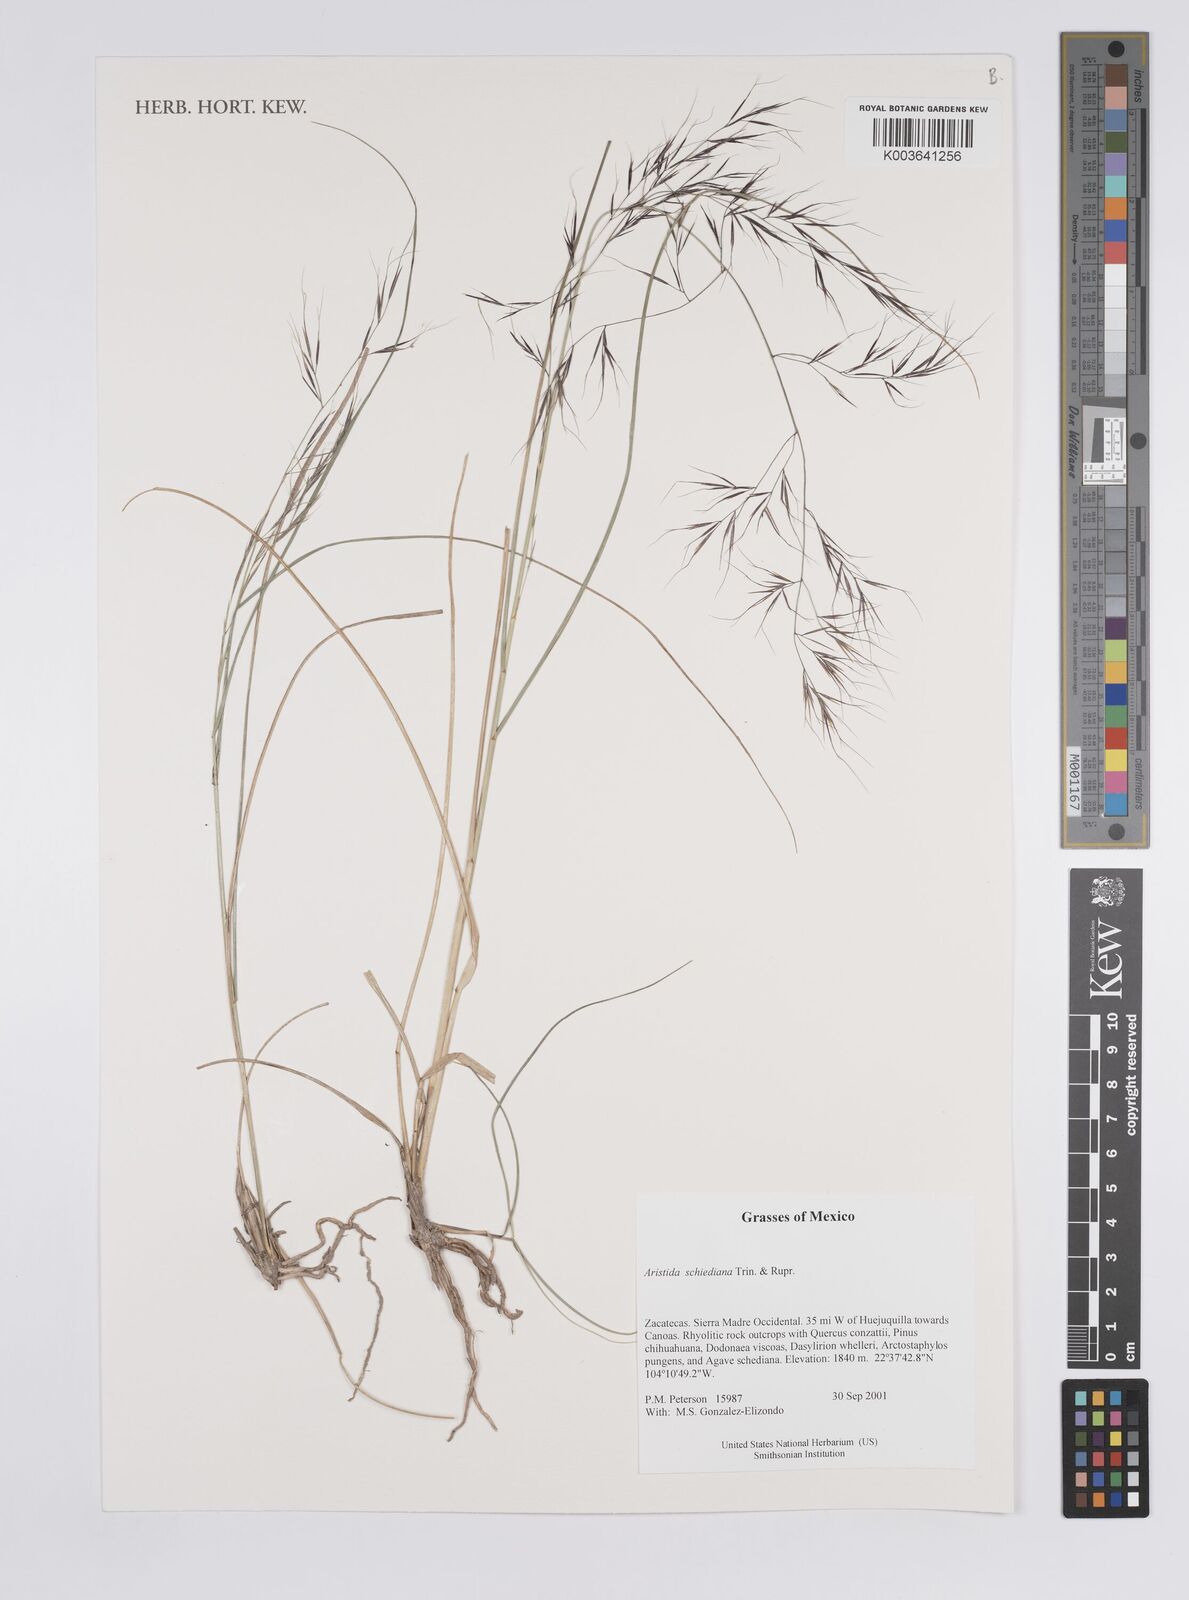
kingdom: Plantae
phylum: Tracheophyta
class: Liliopsida
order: Poales
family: Poaceae
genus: Aristida
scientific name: Aristida schiedeana
